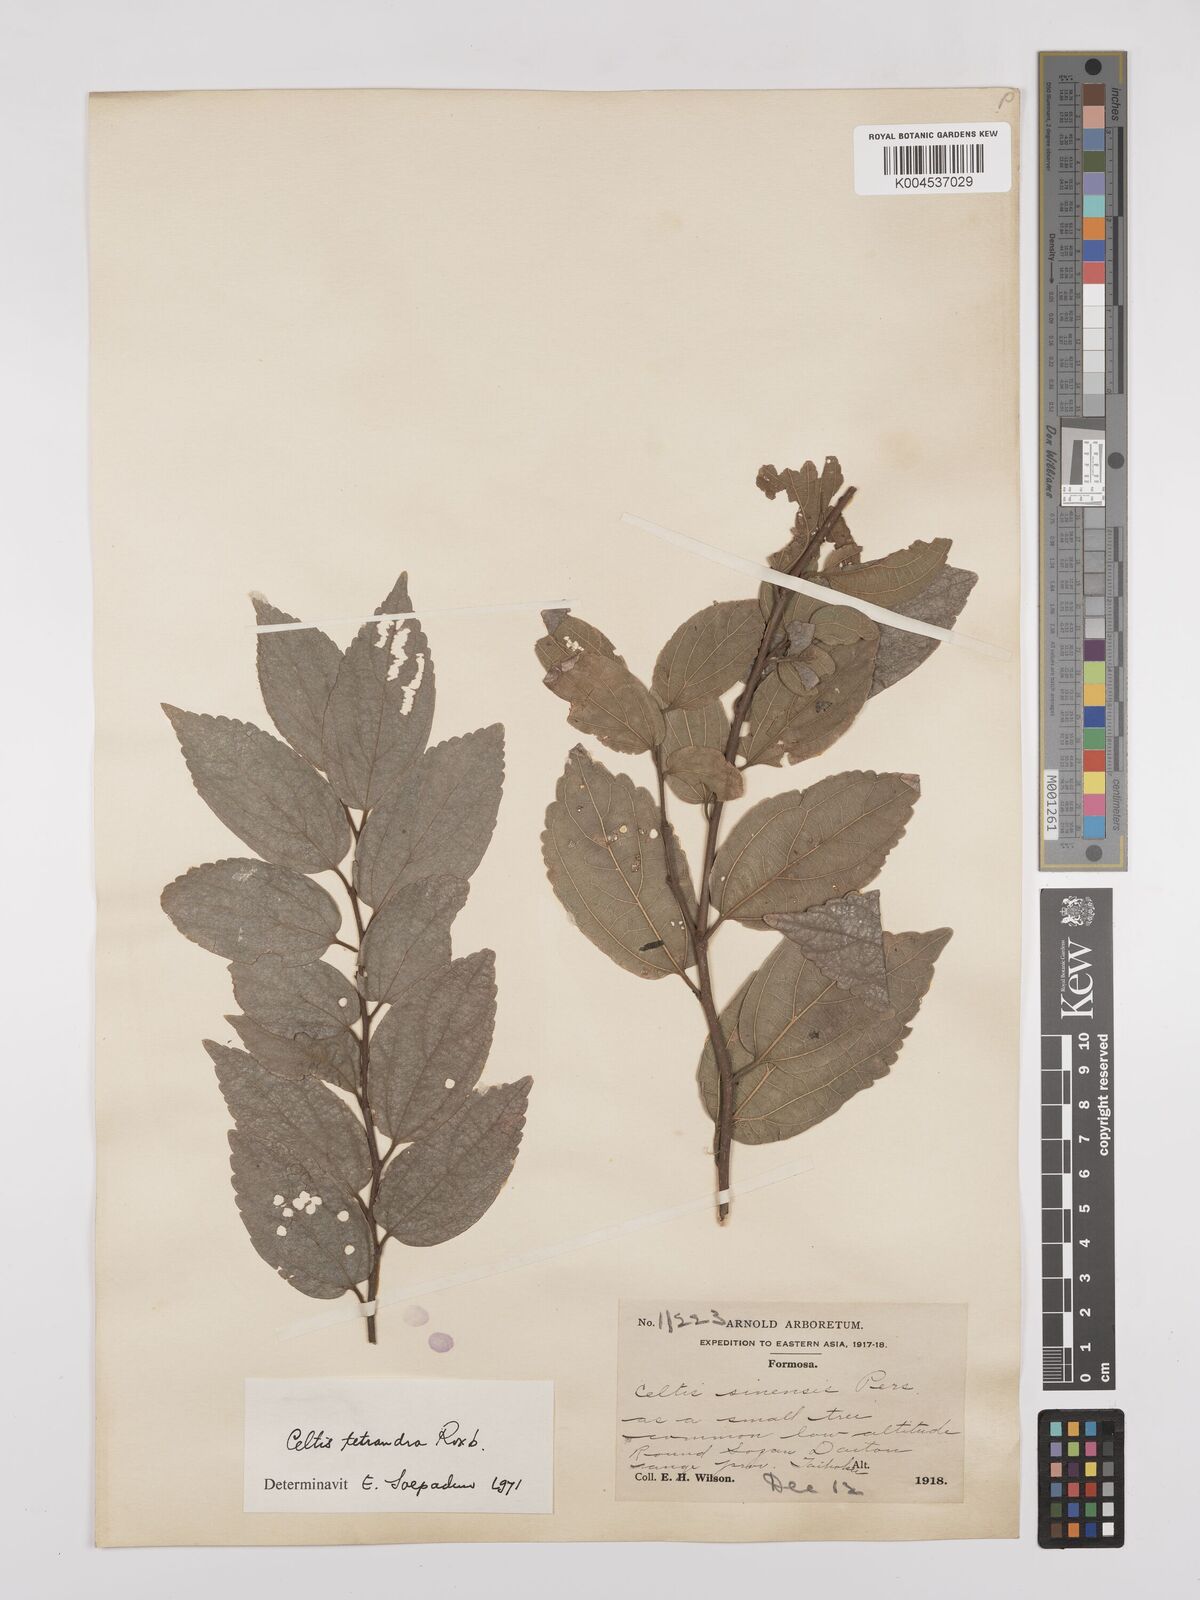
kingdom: Plantae
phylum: Tracheophyta
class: Magnoliopsida
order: Rosales
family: Cannabaceae
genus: Celtis
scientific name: Celtis tetrandra
